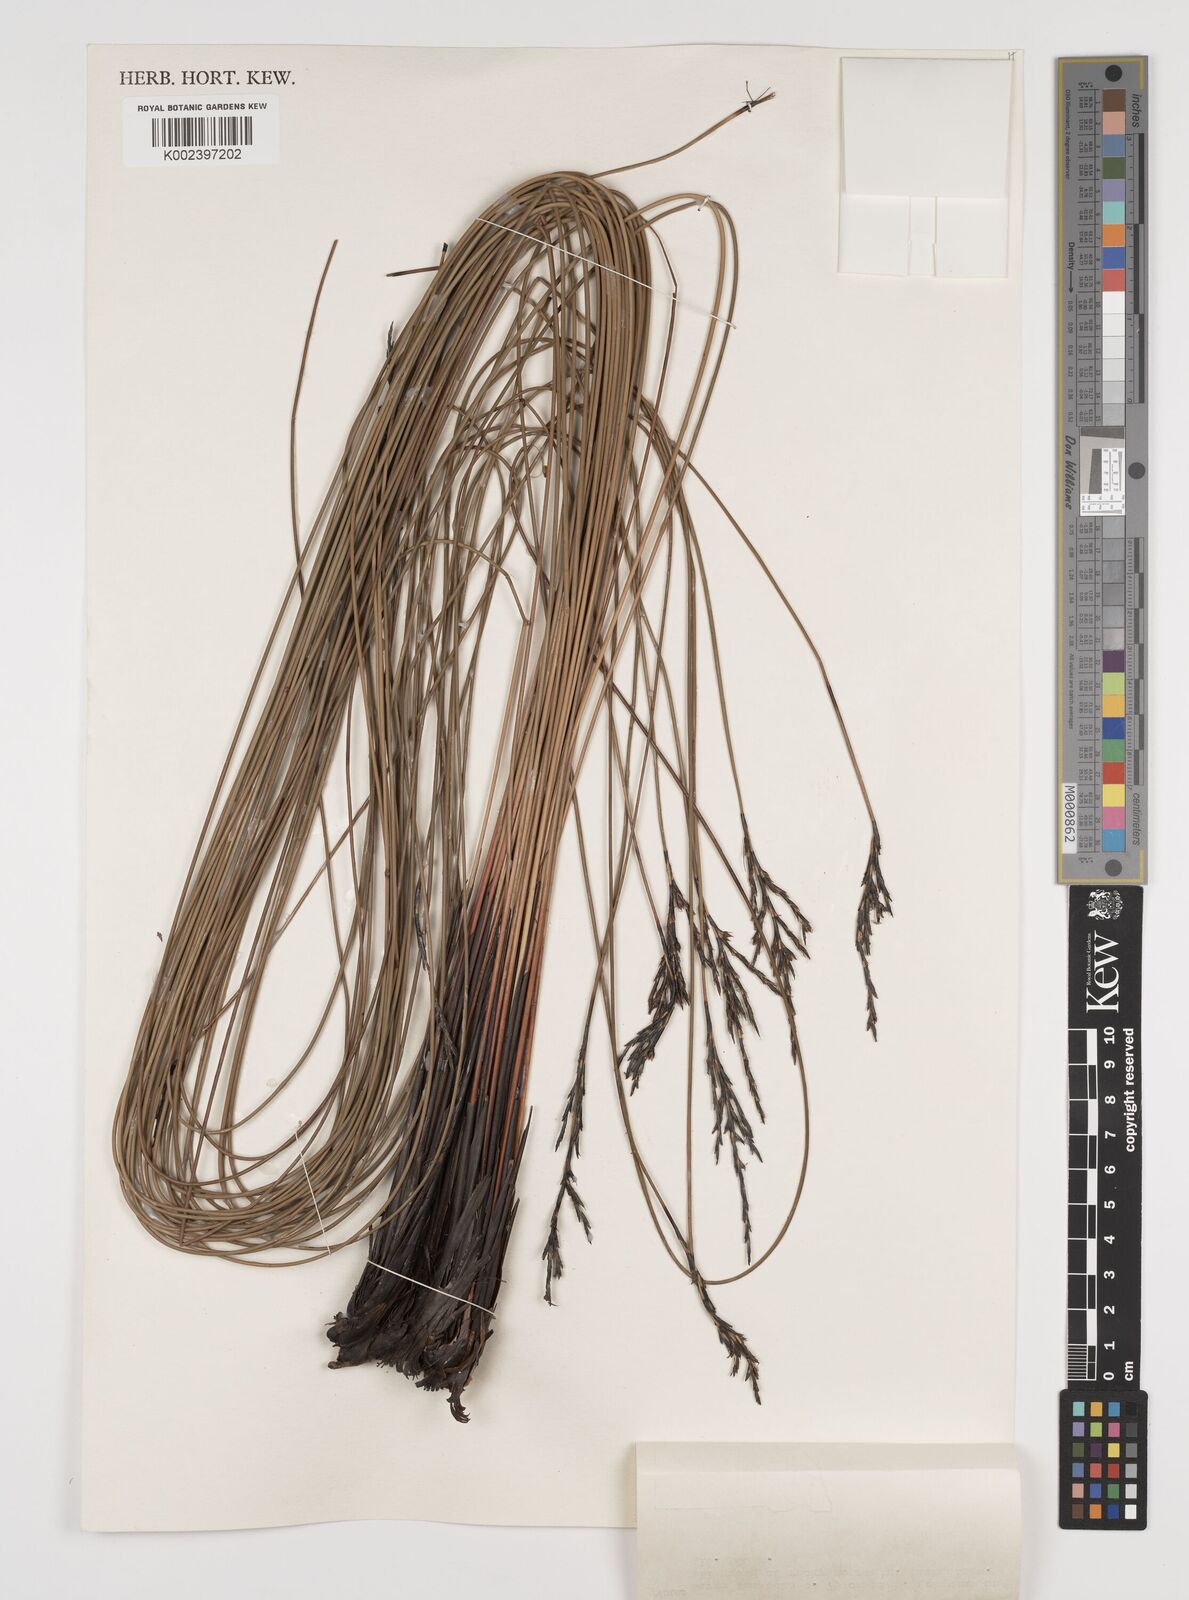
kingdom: Plantae
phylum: Tracheophyta
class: Liliopsida
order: Poales
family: Cyperaceae
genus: Lepidosperma
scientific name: Lepidosperma urophorum
